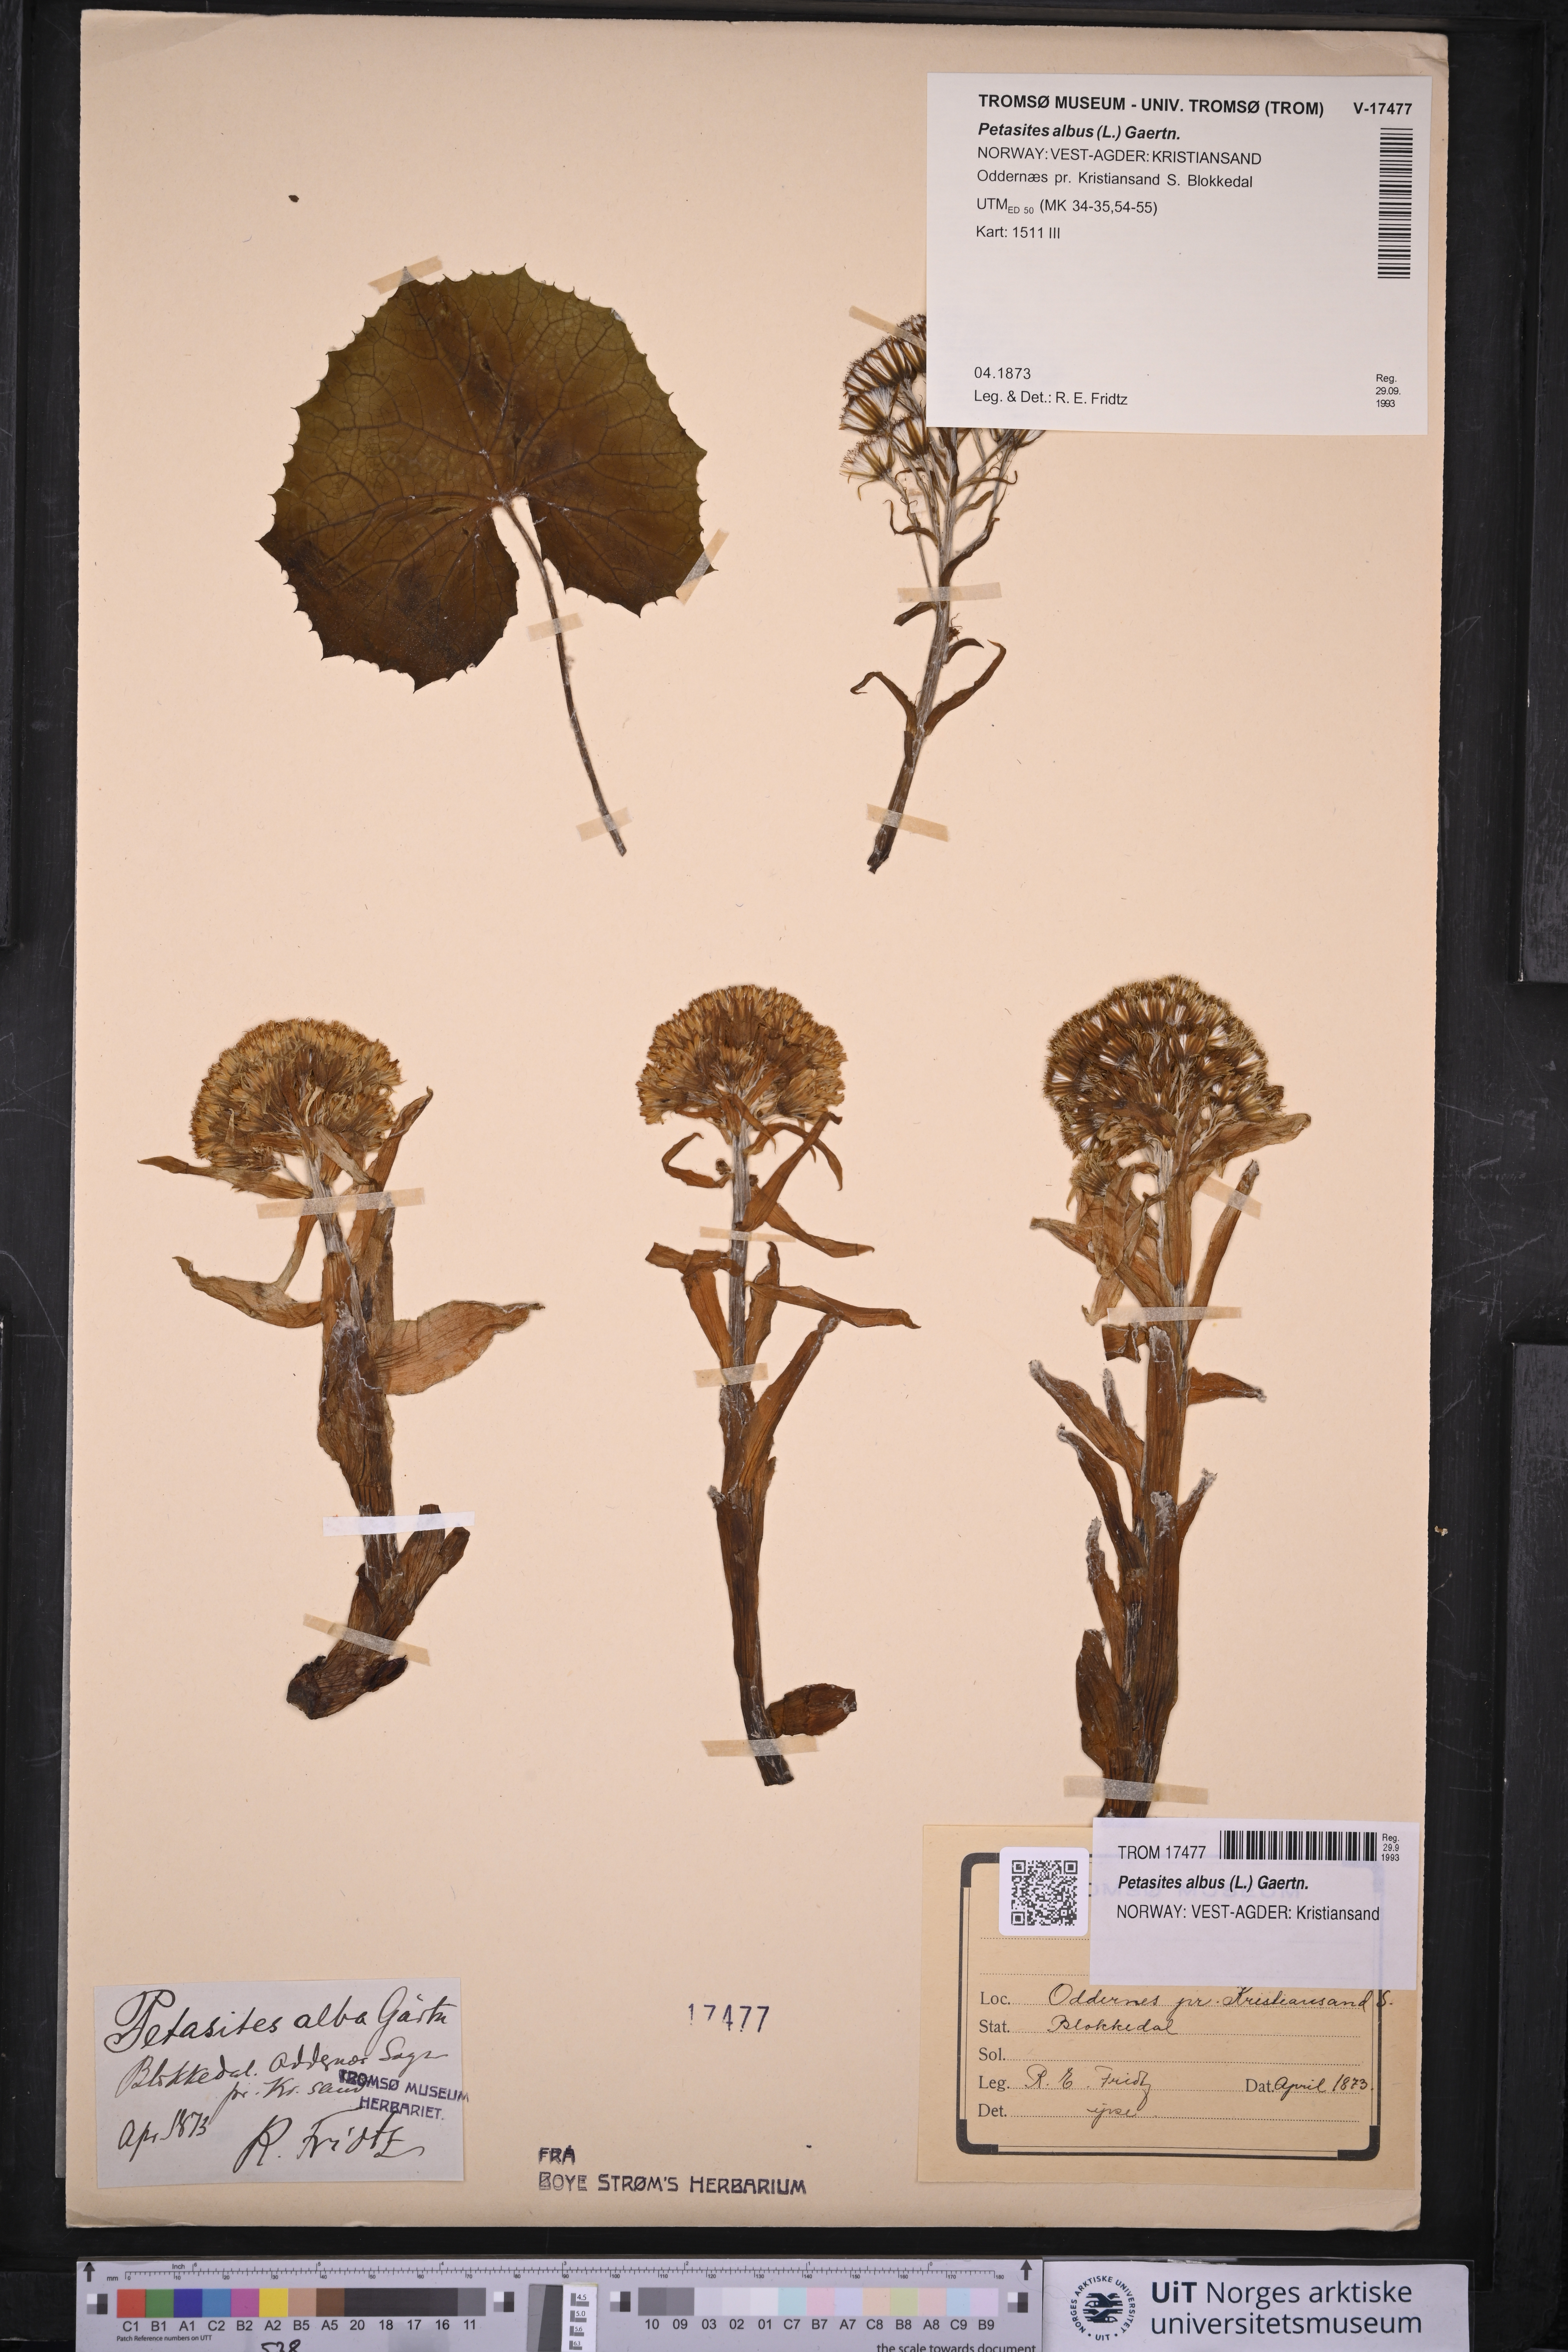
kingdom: Plantae
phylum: Tracheophyta
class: Magnoliopsida
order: Asterales
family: Asteraceae
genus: Petasites
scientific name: Petasites albus
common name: White butterbur
